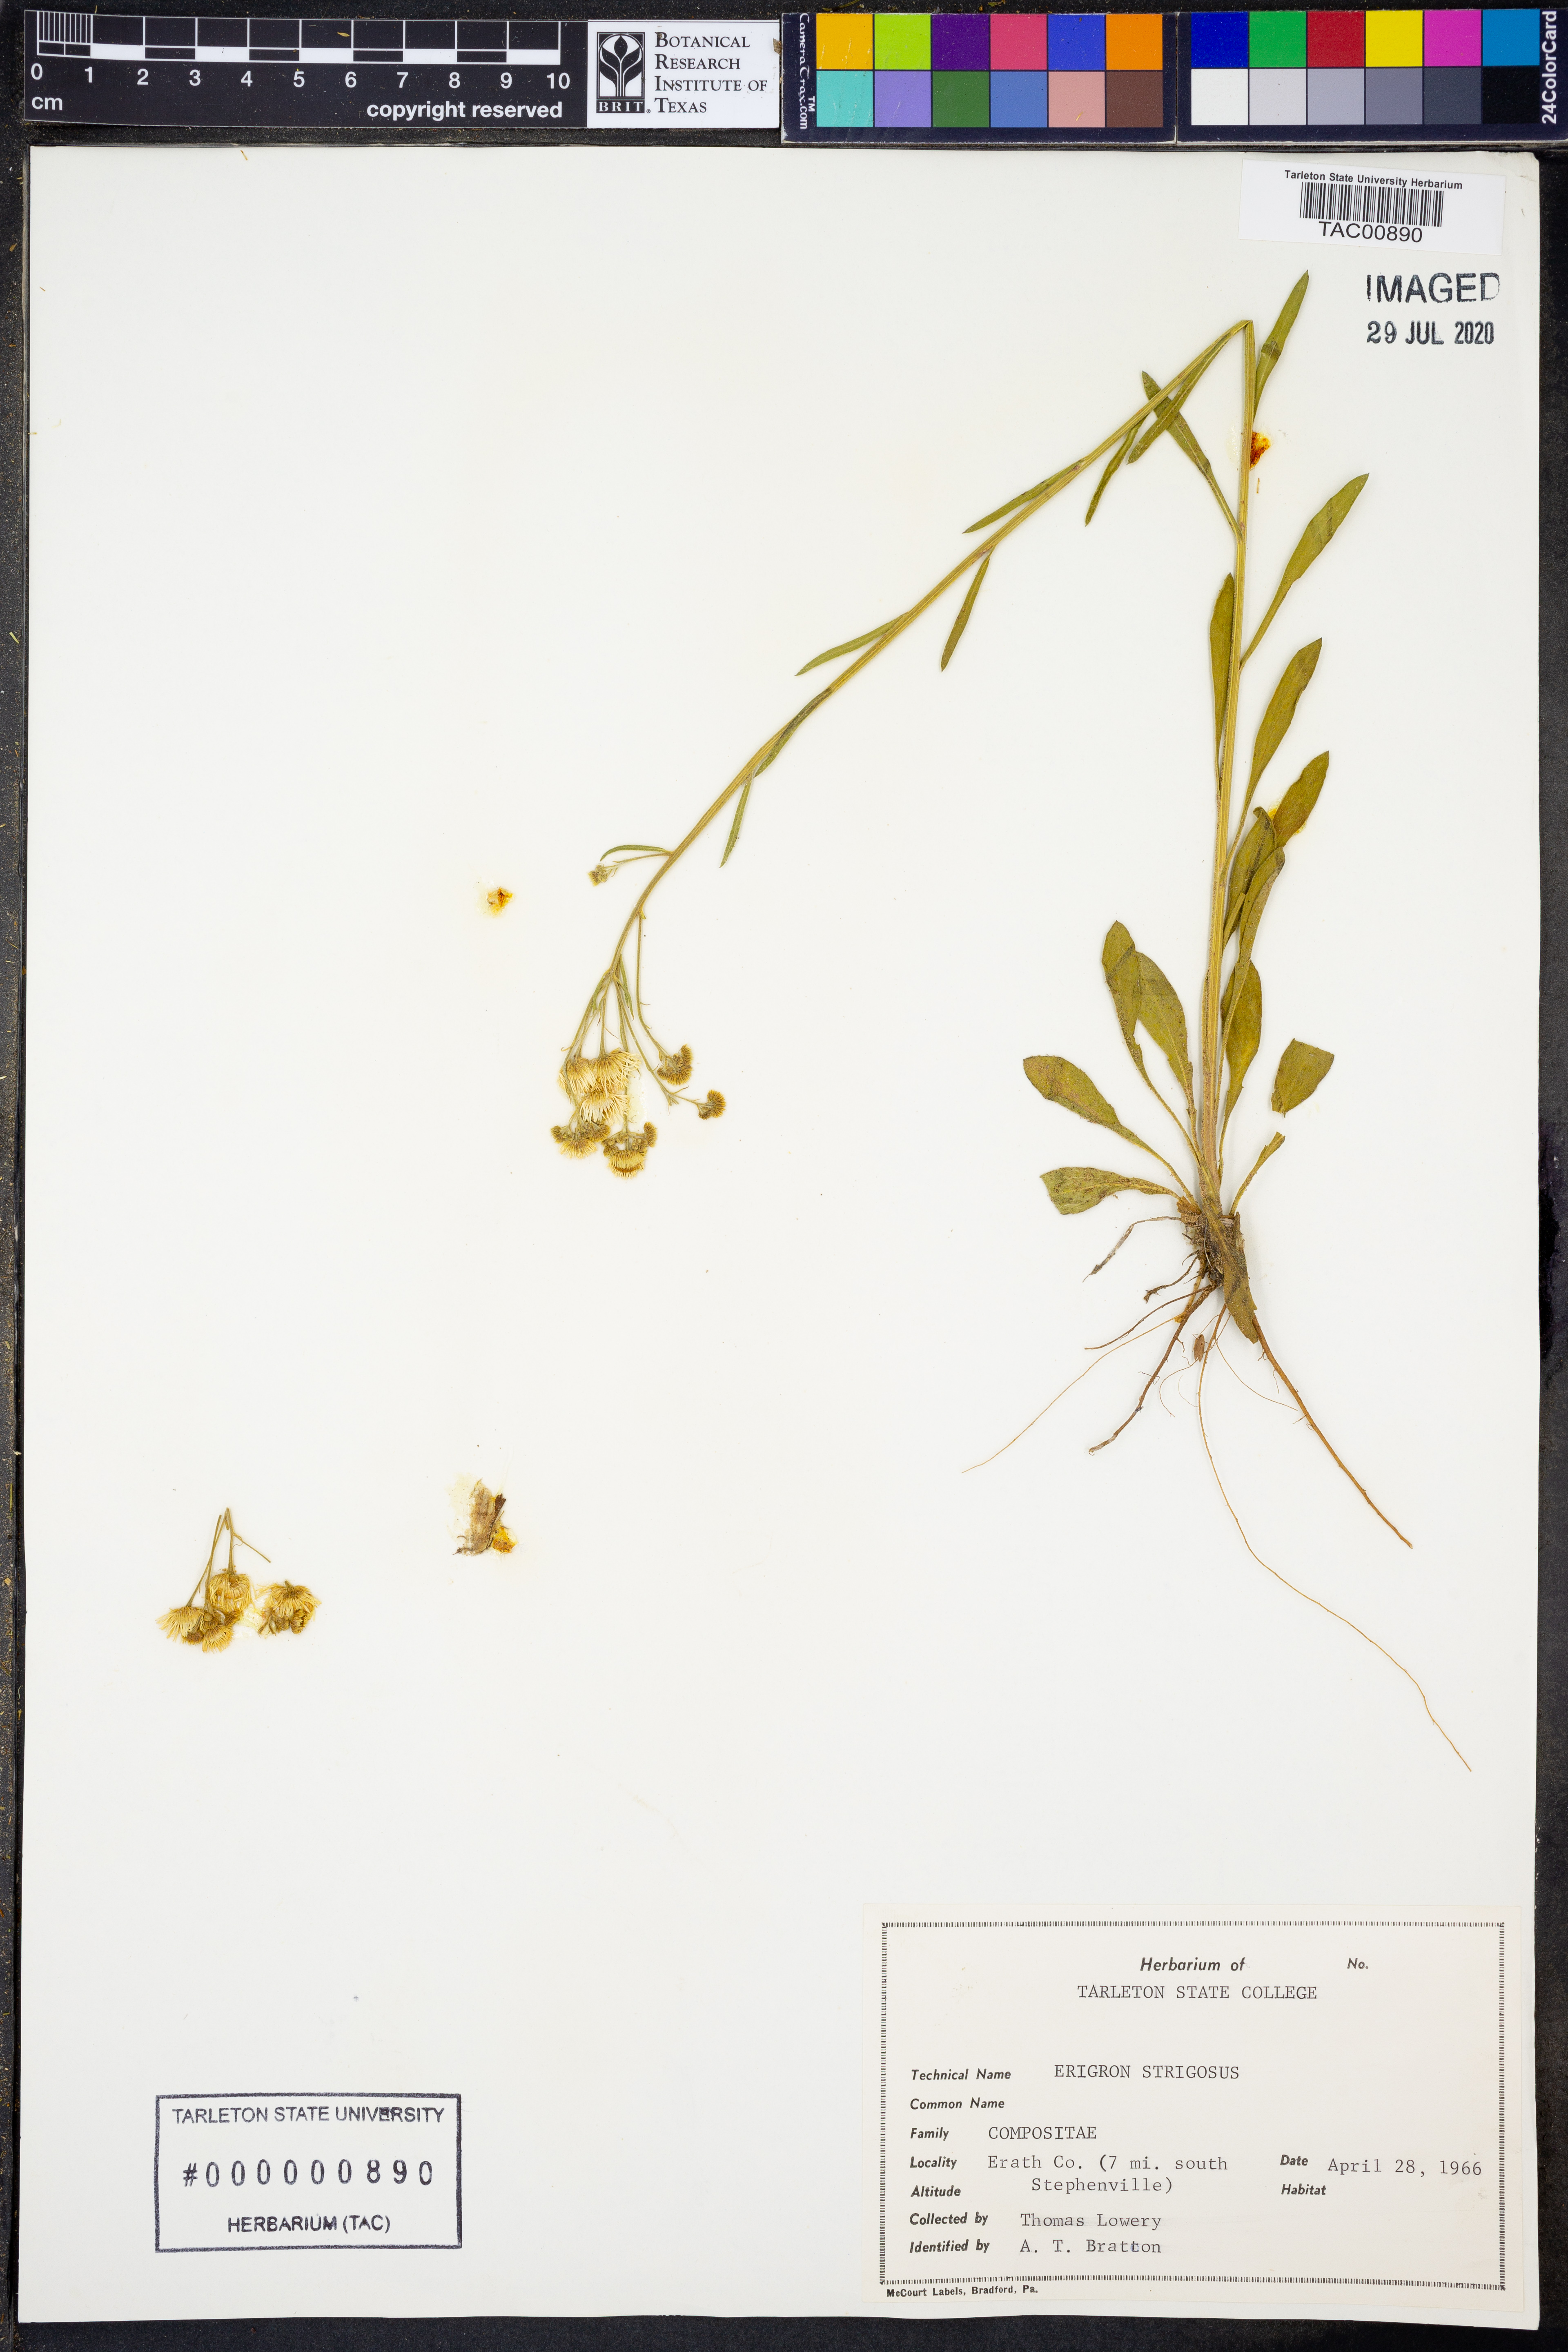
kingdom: Plantae
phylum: Tracheophyta
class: Magnoliopsida
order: Asterales
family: Asteraceae
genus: Erigeron
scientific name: Erigeron strigosus
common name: Common eastern fleabane
